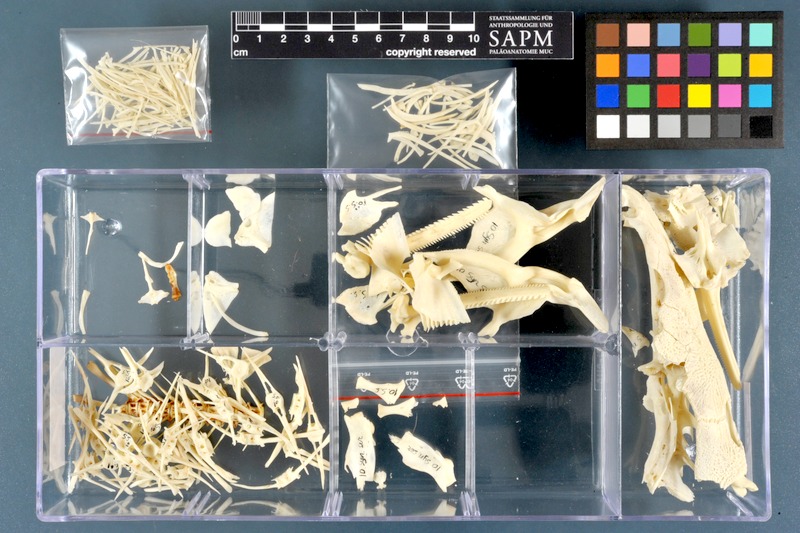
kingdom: Animalia
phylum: Chordata
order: Siluriformes
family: Mochokidae
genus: Synodontis
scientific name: Synodontis serratus
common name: Shield-head catfish
